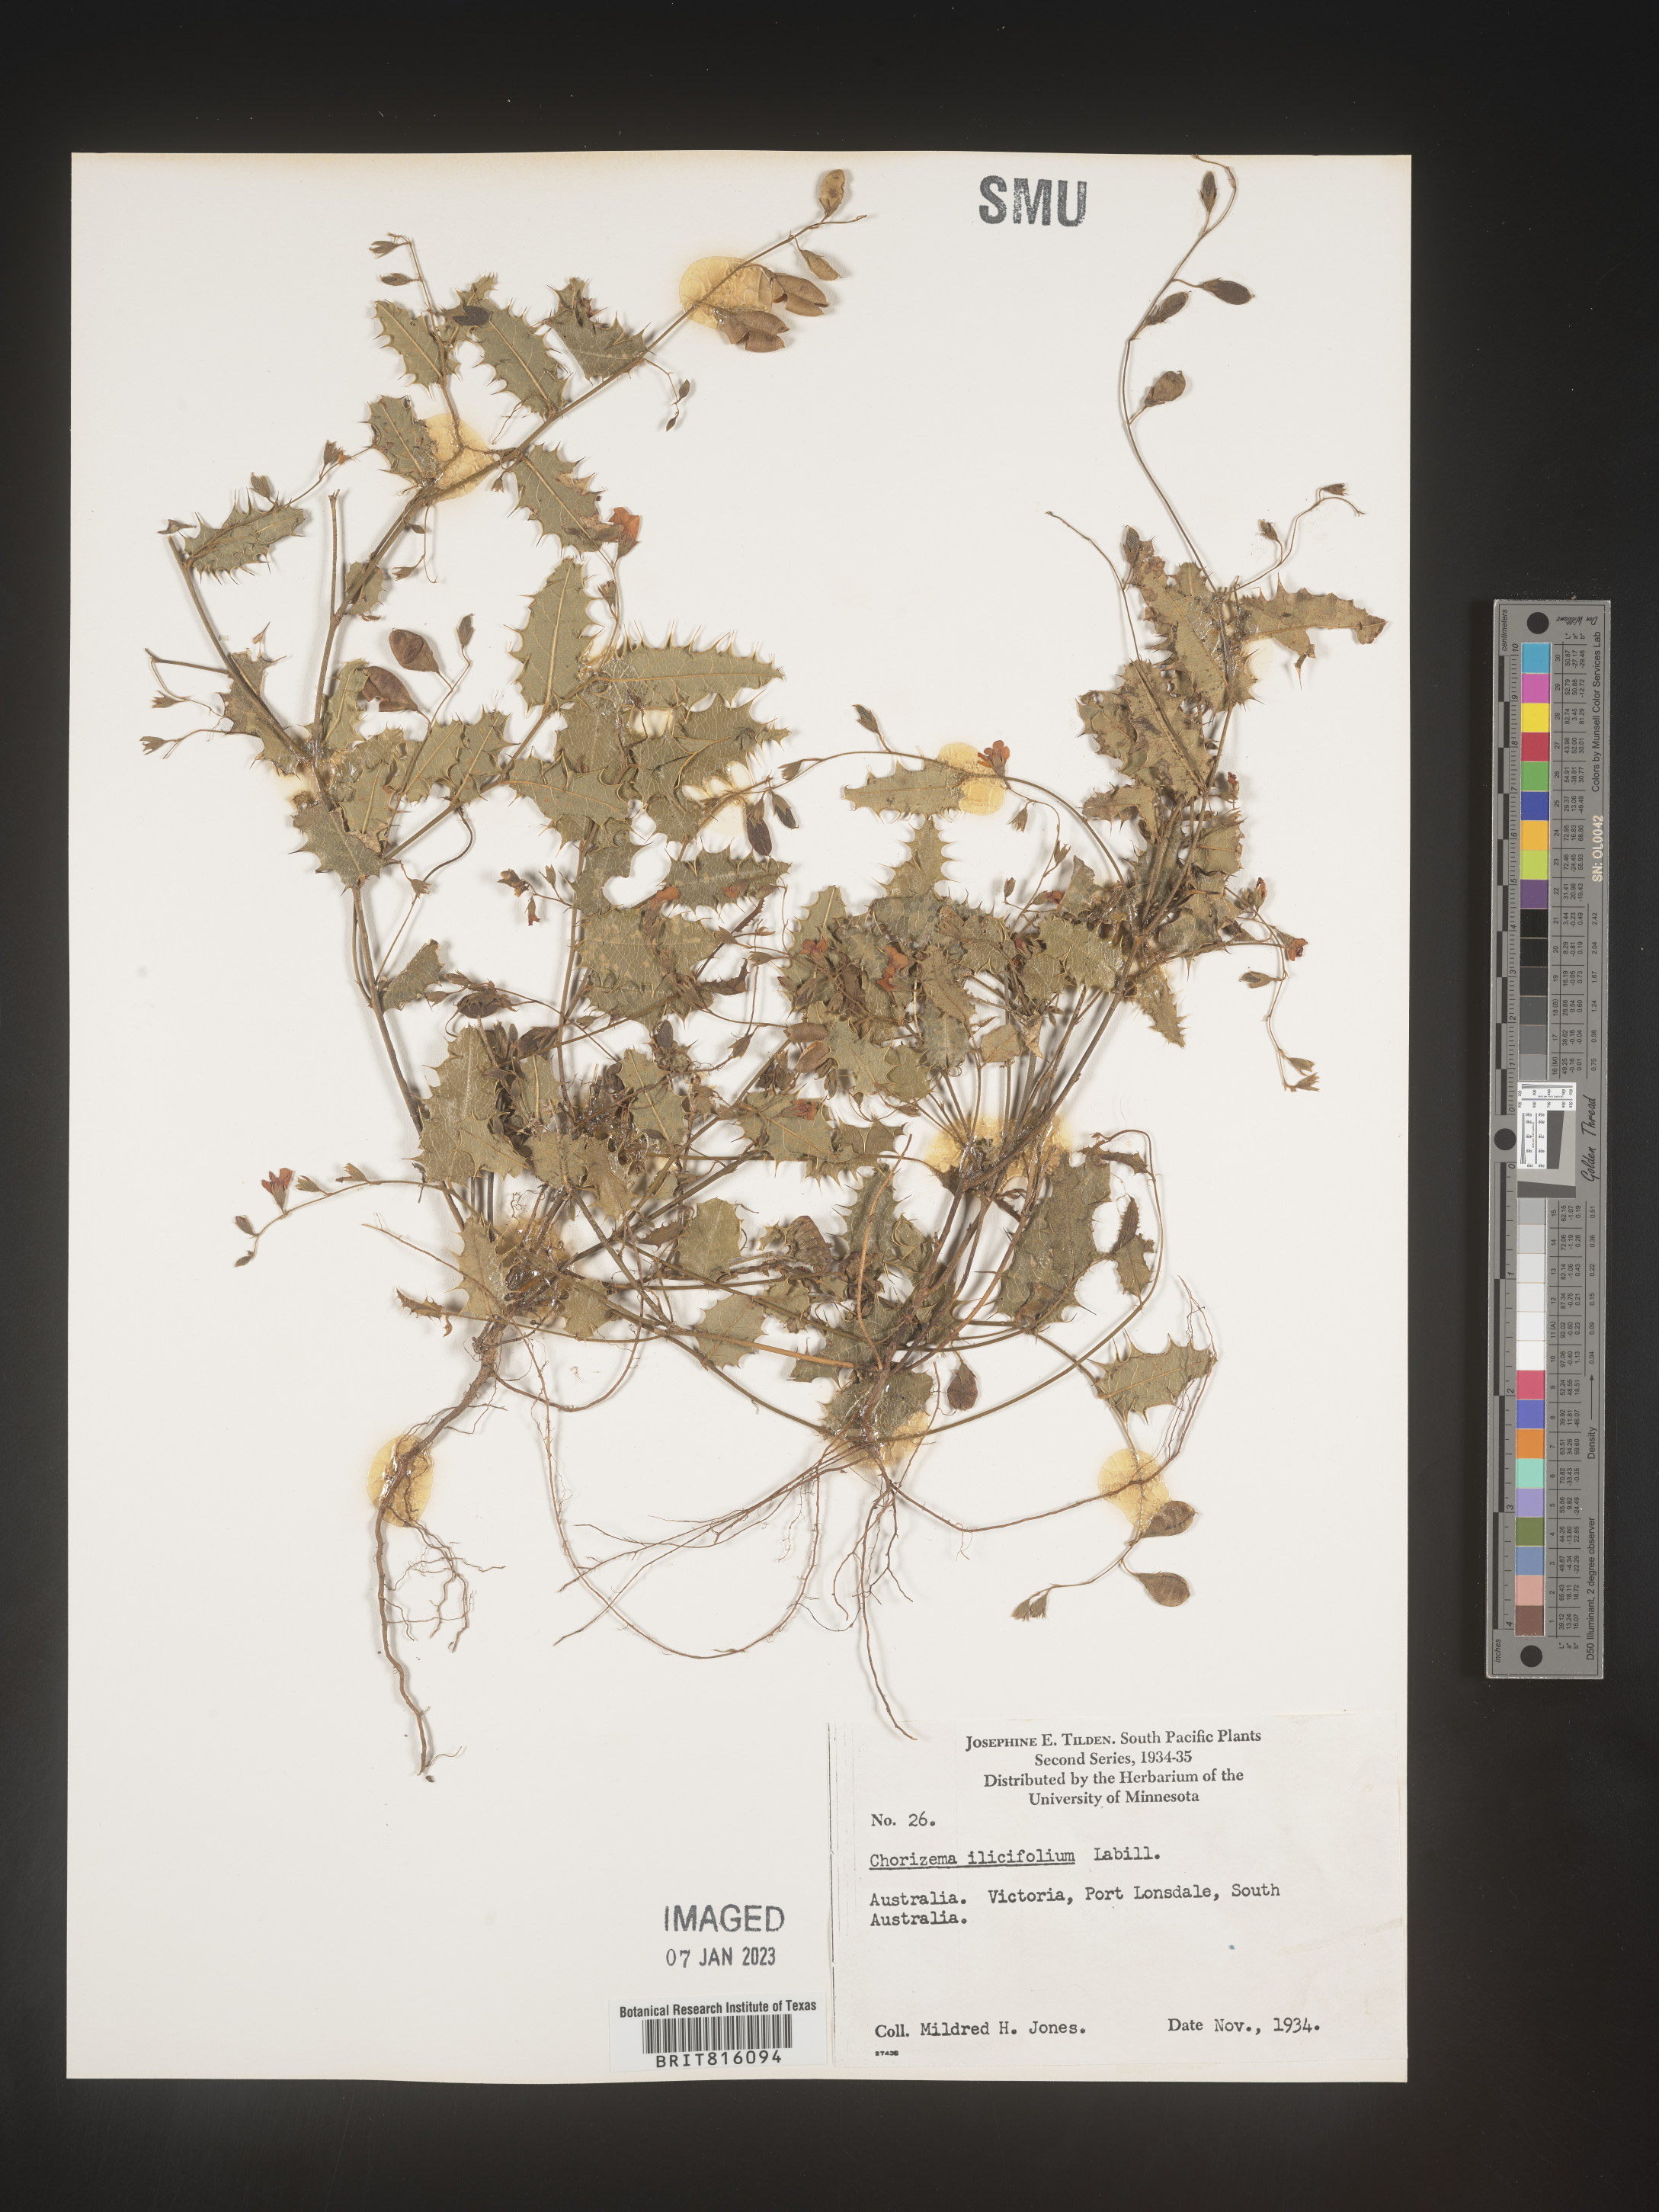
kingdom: Plantae
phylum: Tracheophyta
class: Magnoliopsida
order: Fabales
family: Fabaceae
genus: Chorizema
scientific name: Chorizema
